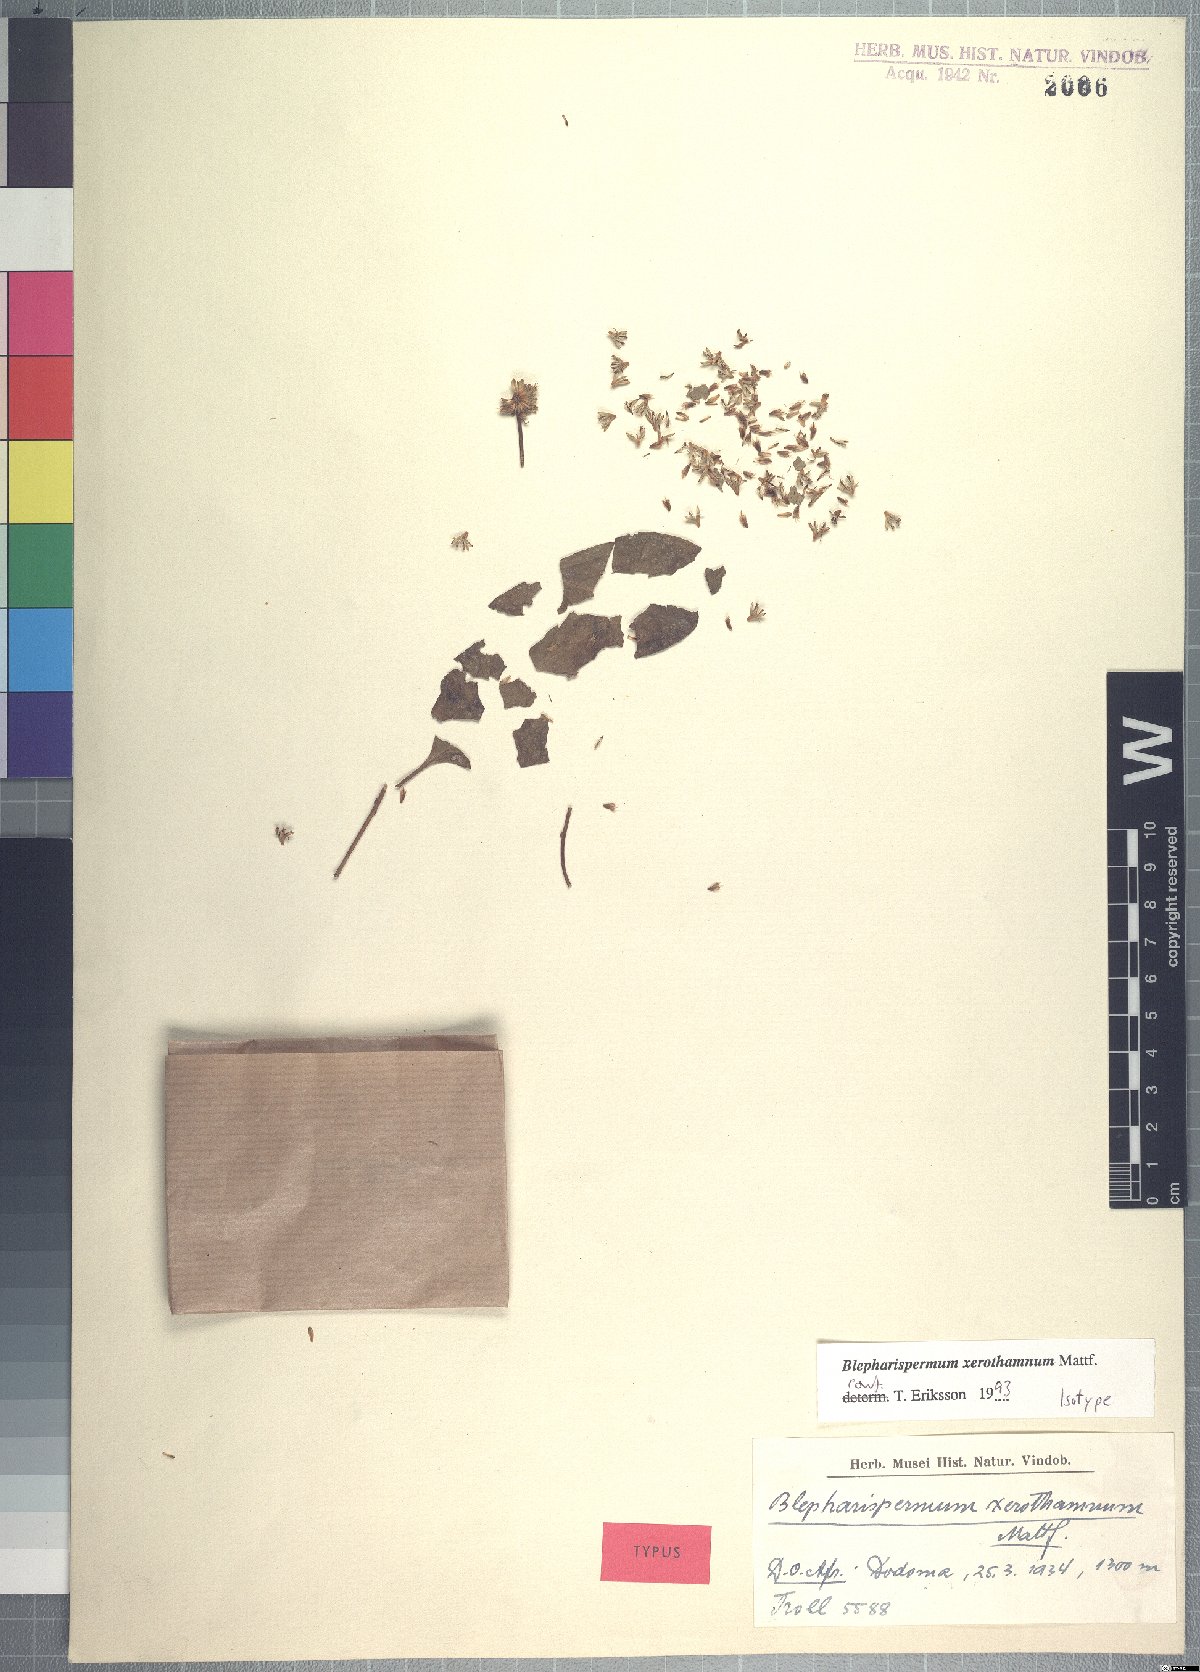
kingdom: Plantae
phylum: Tracheophyta
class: Magnoliopsida
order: Asterales
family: Asteraceae
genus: Blepharispermum
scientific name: Blepharispermum xerothamnum
